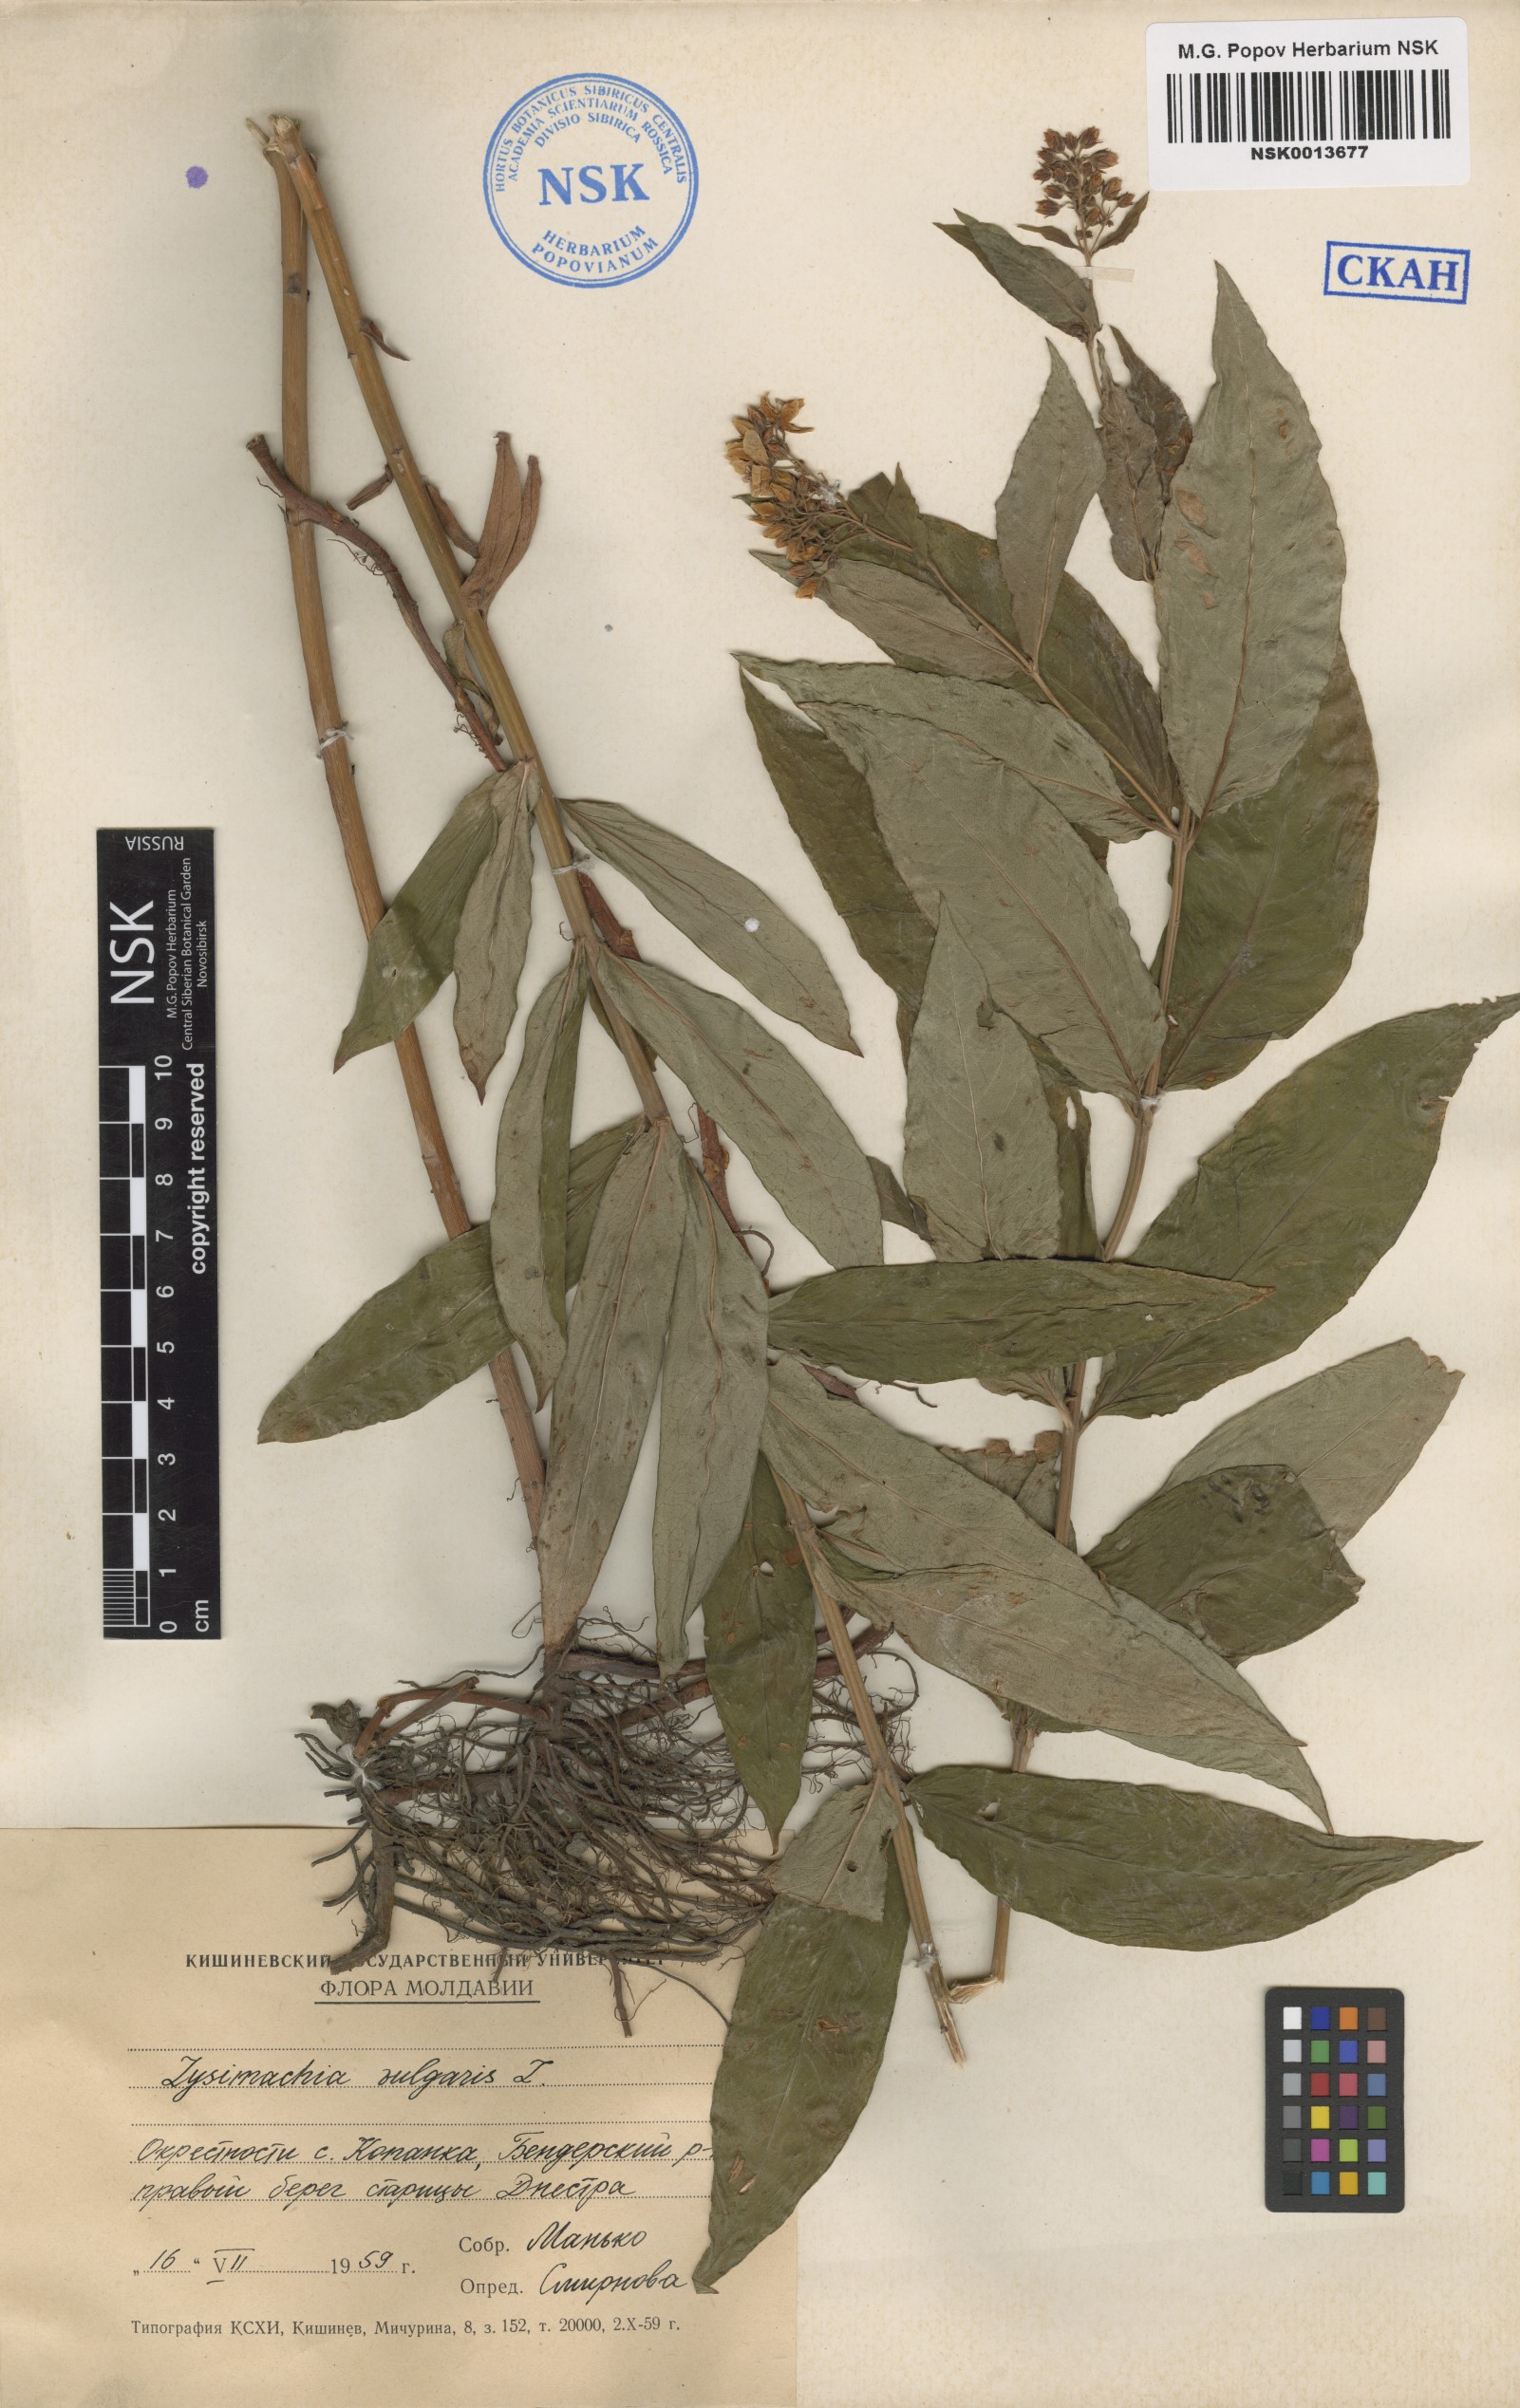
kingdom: Plantae
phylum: Tracheophyta
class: Magnoliopsida
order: Ericales
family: Primulaceae
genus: Lysimachia
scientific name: Lysimachia vulgaris
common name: Yellow loosestrife
